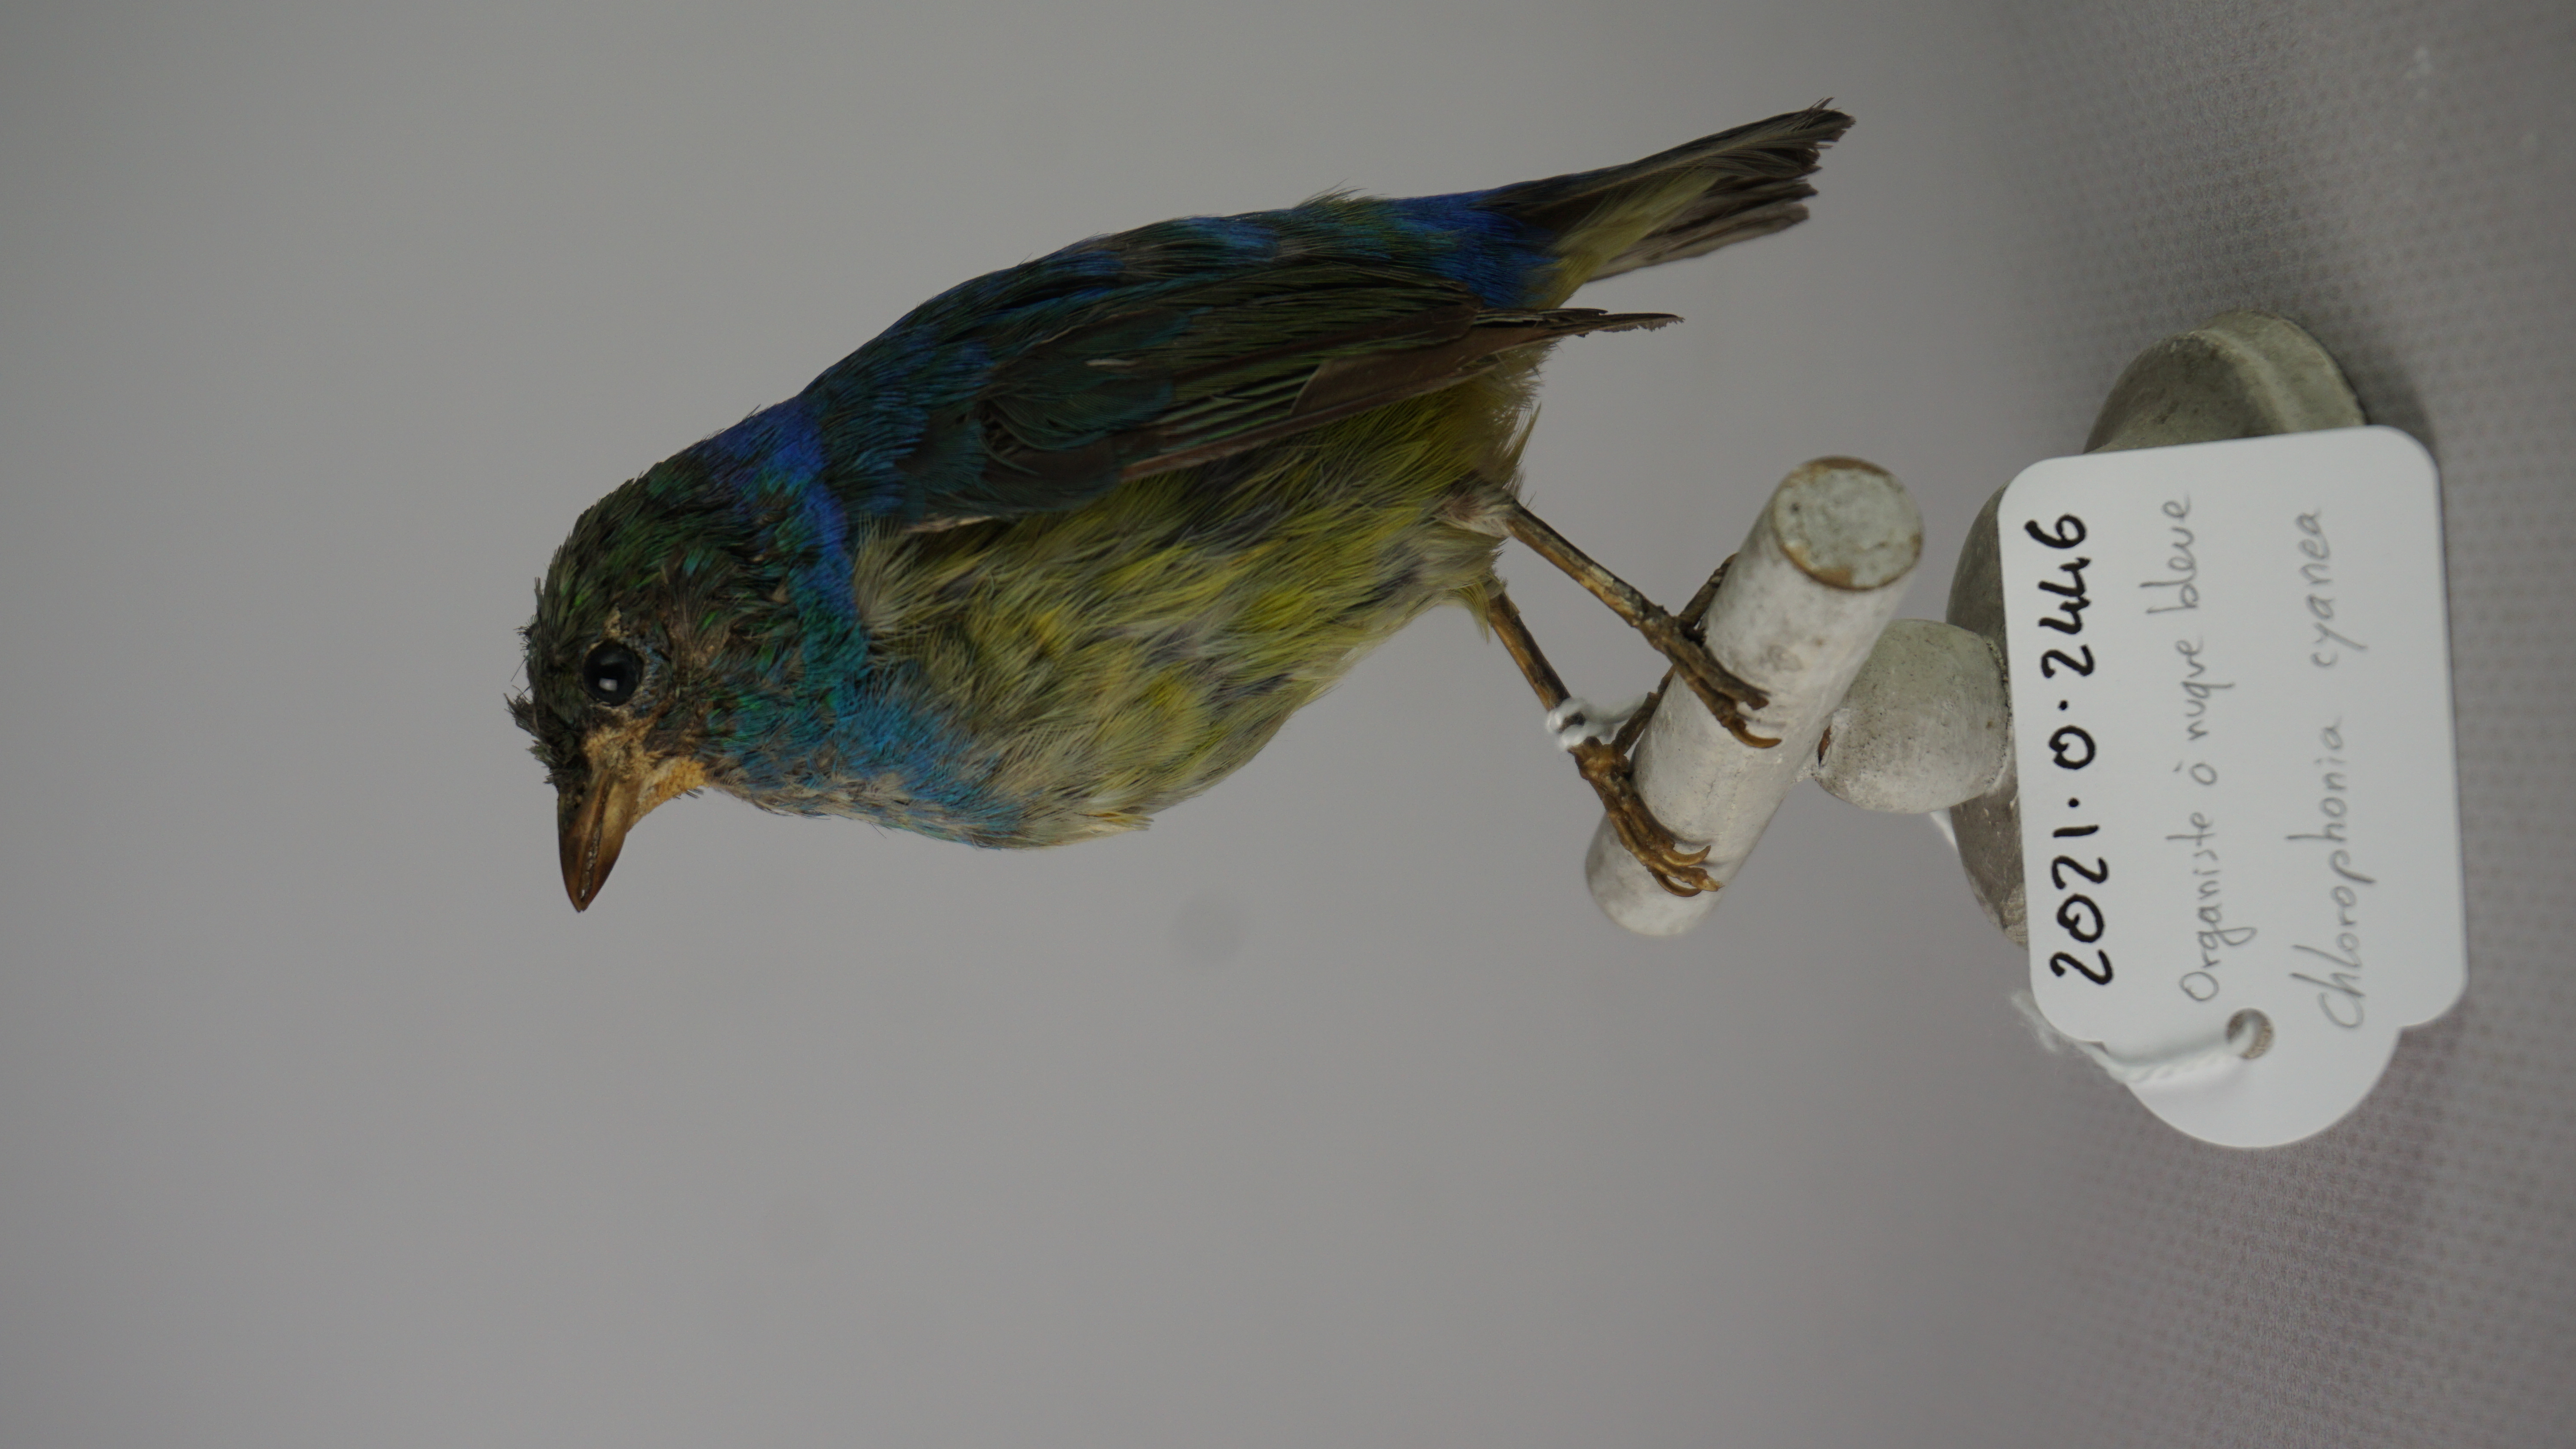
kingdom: Animalia
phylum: Chordata
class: Aves
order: Passeriformes
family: Fringillidae
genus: Chlorophonia
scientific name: Chlorophonia cyanea
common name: Blue-naped chlorophonia
